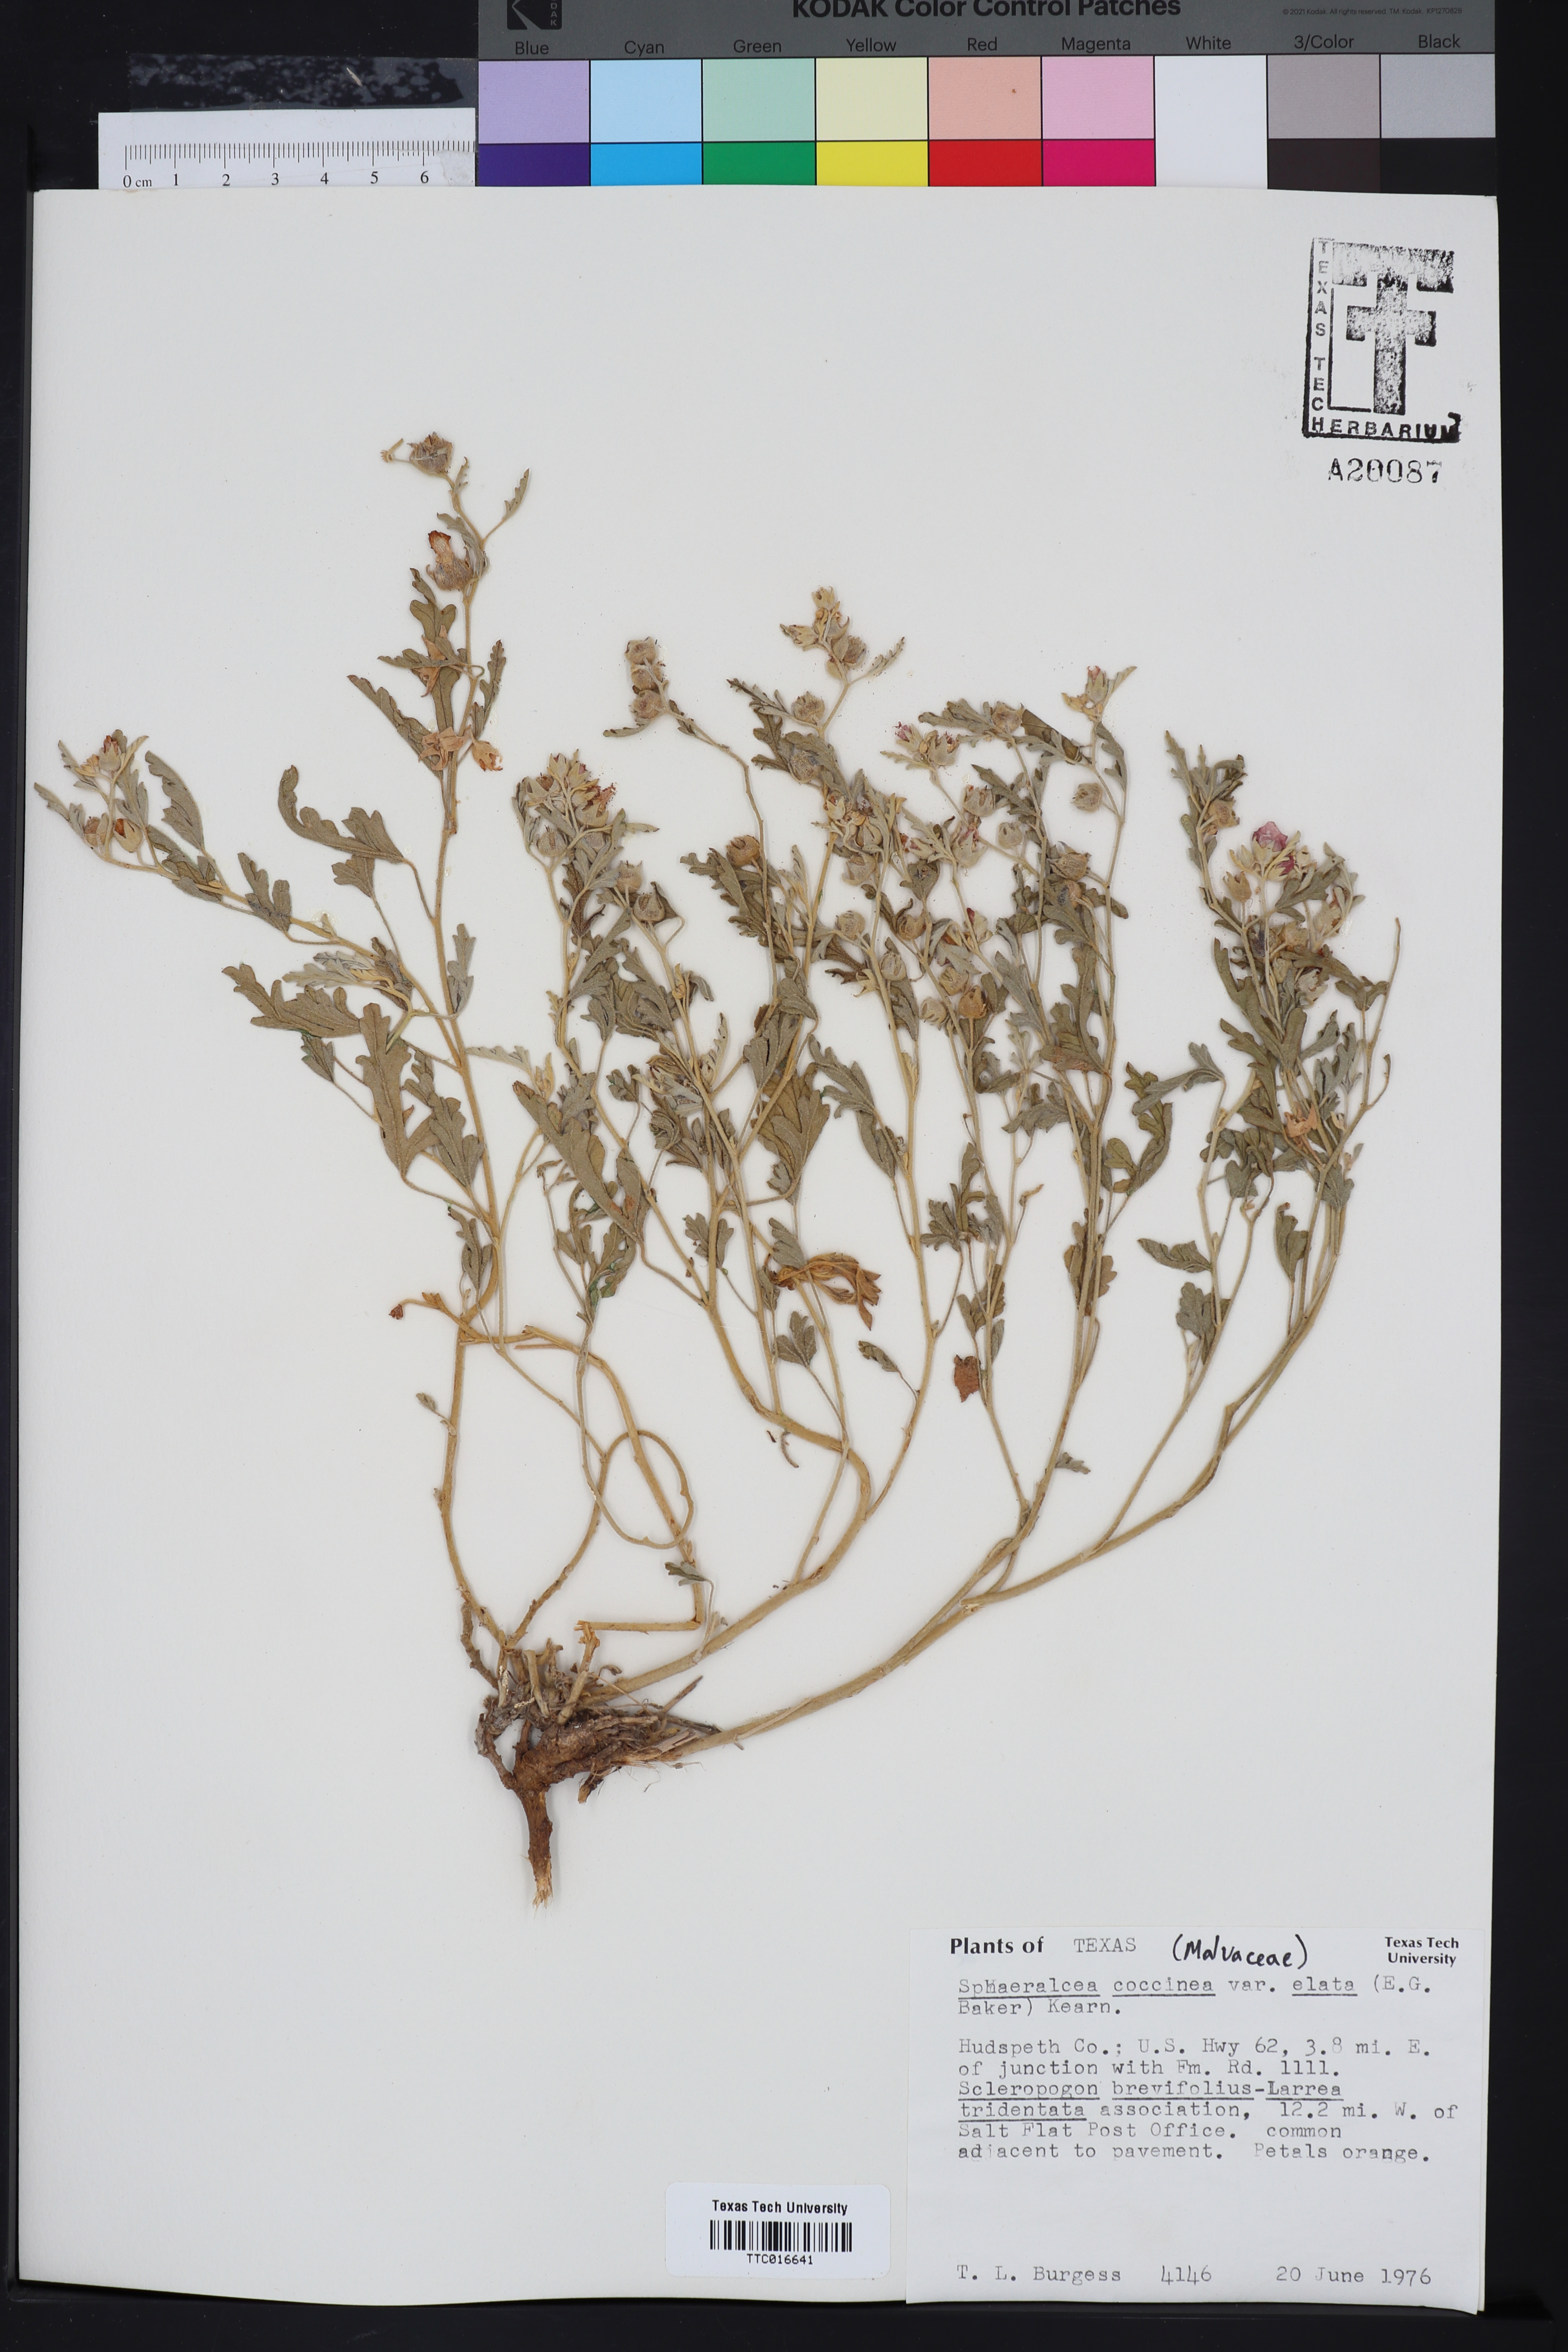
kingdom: Plantae
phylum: Tracheophyta
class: Magnoliopsida
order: Malvales
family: Malvaceae
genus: Sphaeralcea
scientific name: Sphaeralcea coccinea
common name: Moss-rose
